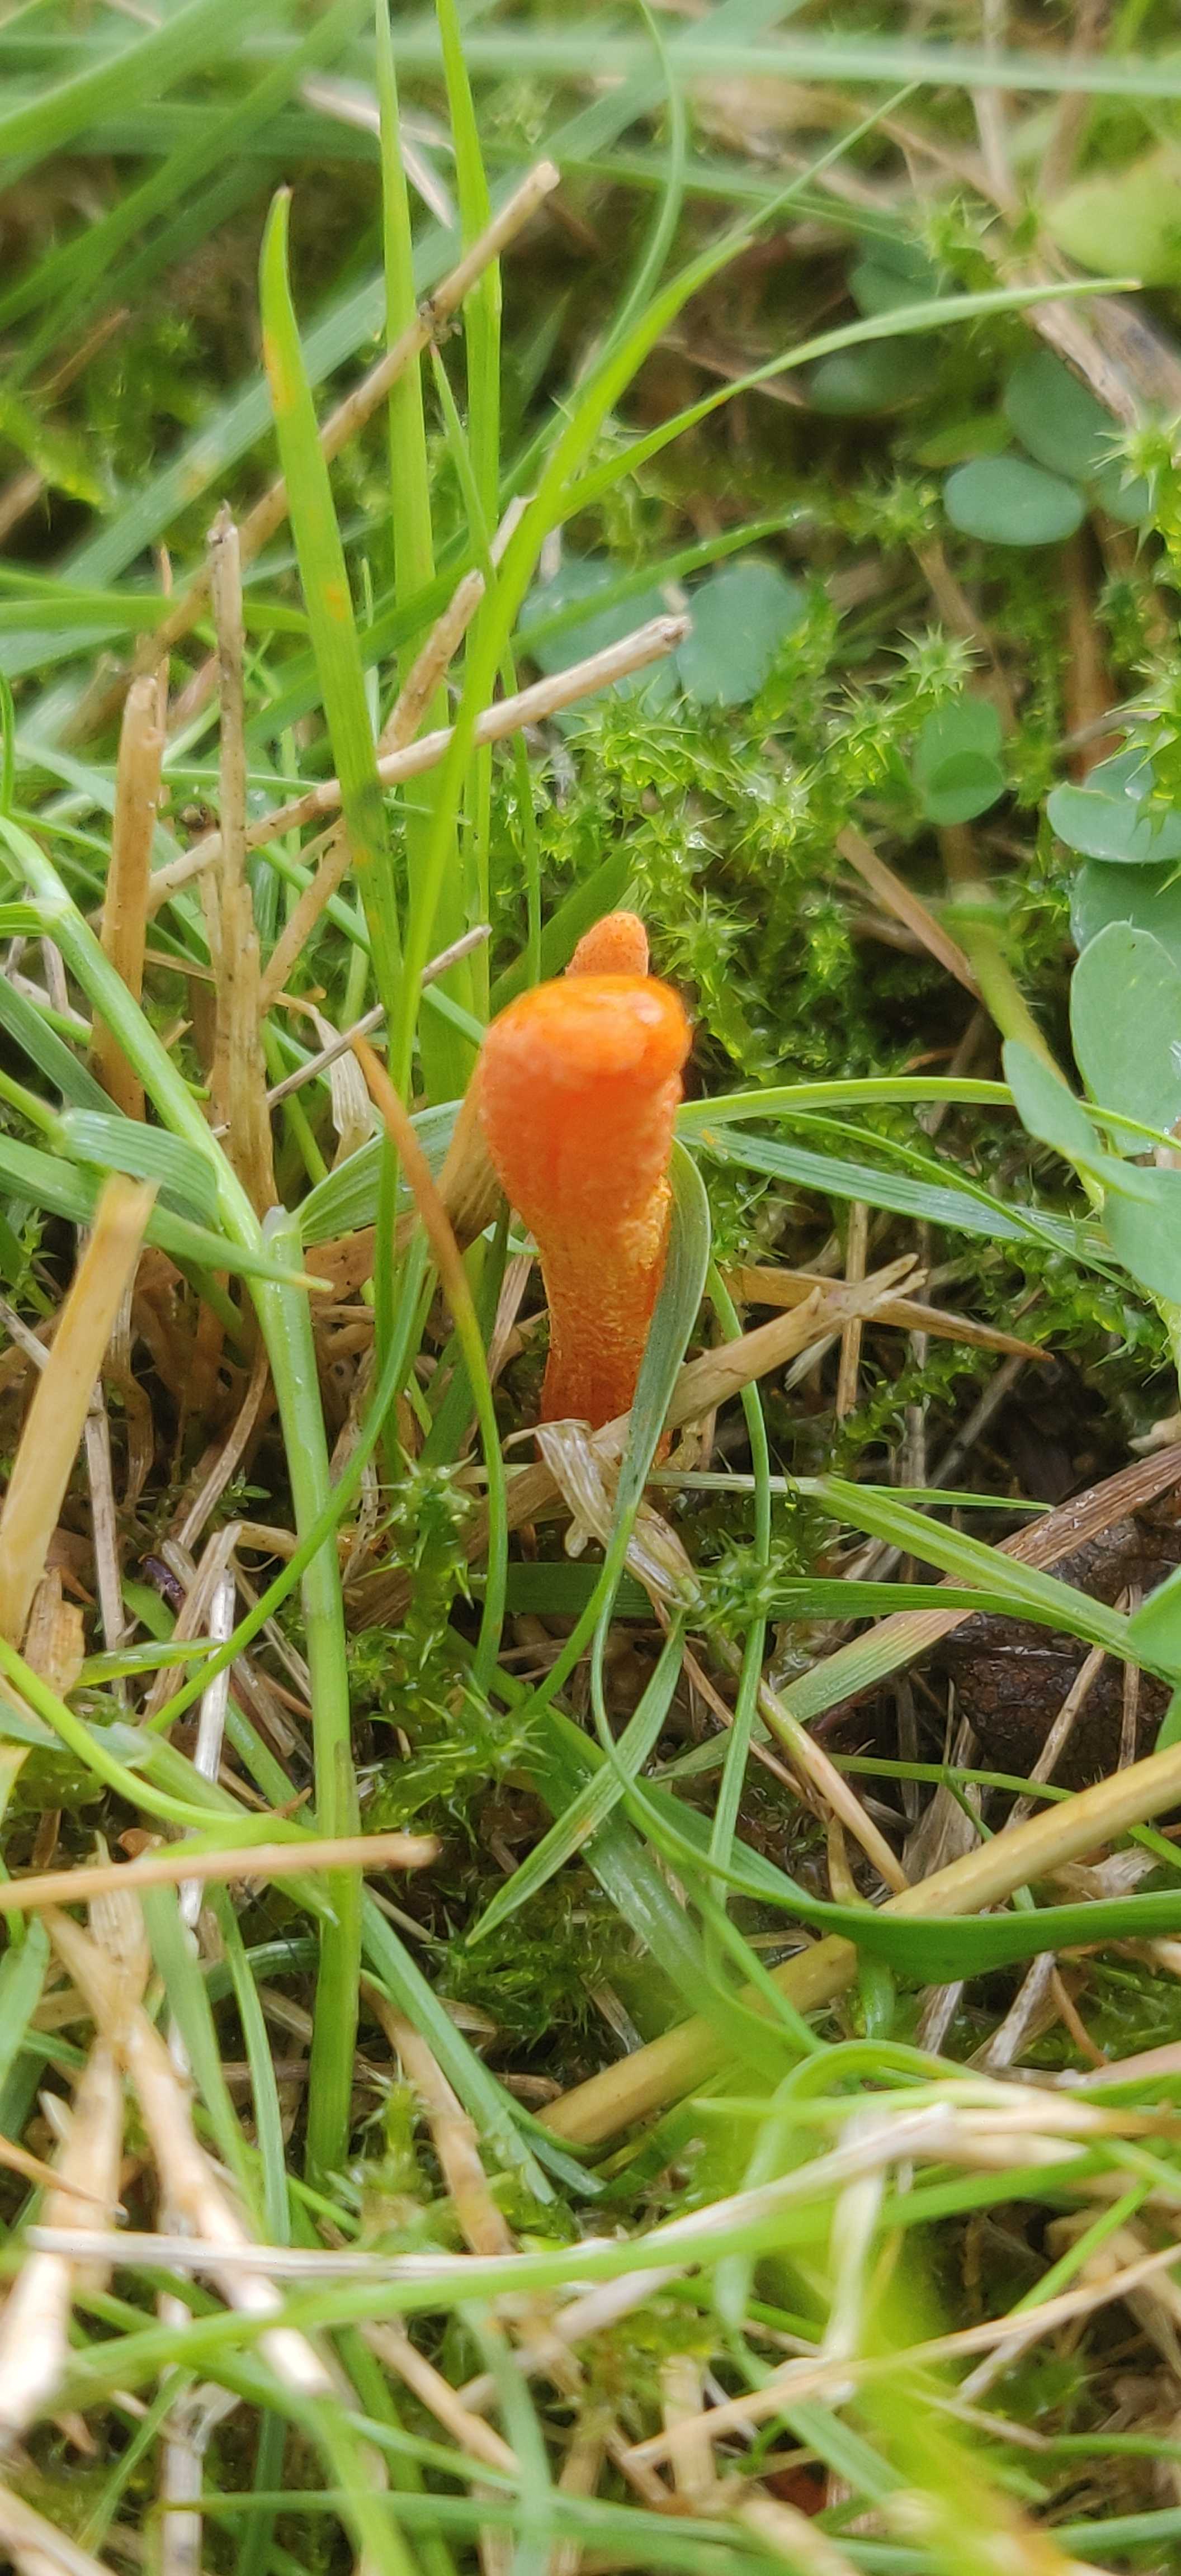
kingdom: Fungi
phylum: Ascomycota
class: Sordariomycetes
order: Hypocreales
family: Cordycipitaceae
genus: Cordyceps
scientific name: Cordyceps militaris
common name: puppe-snyltekølle
